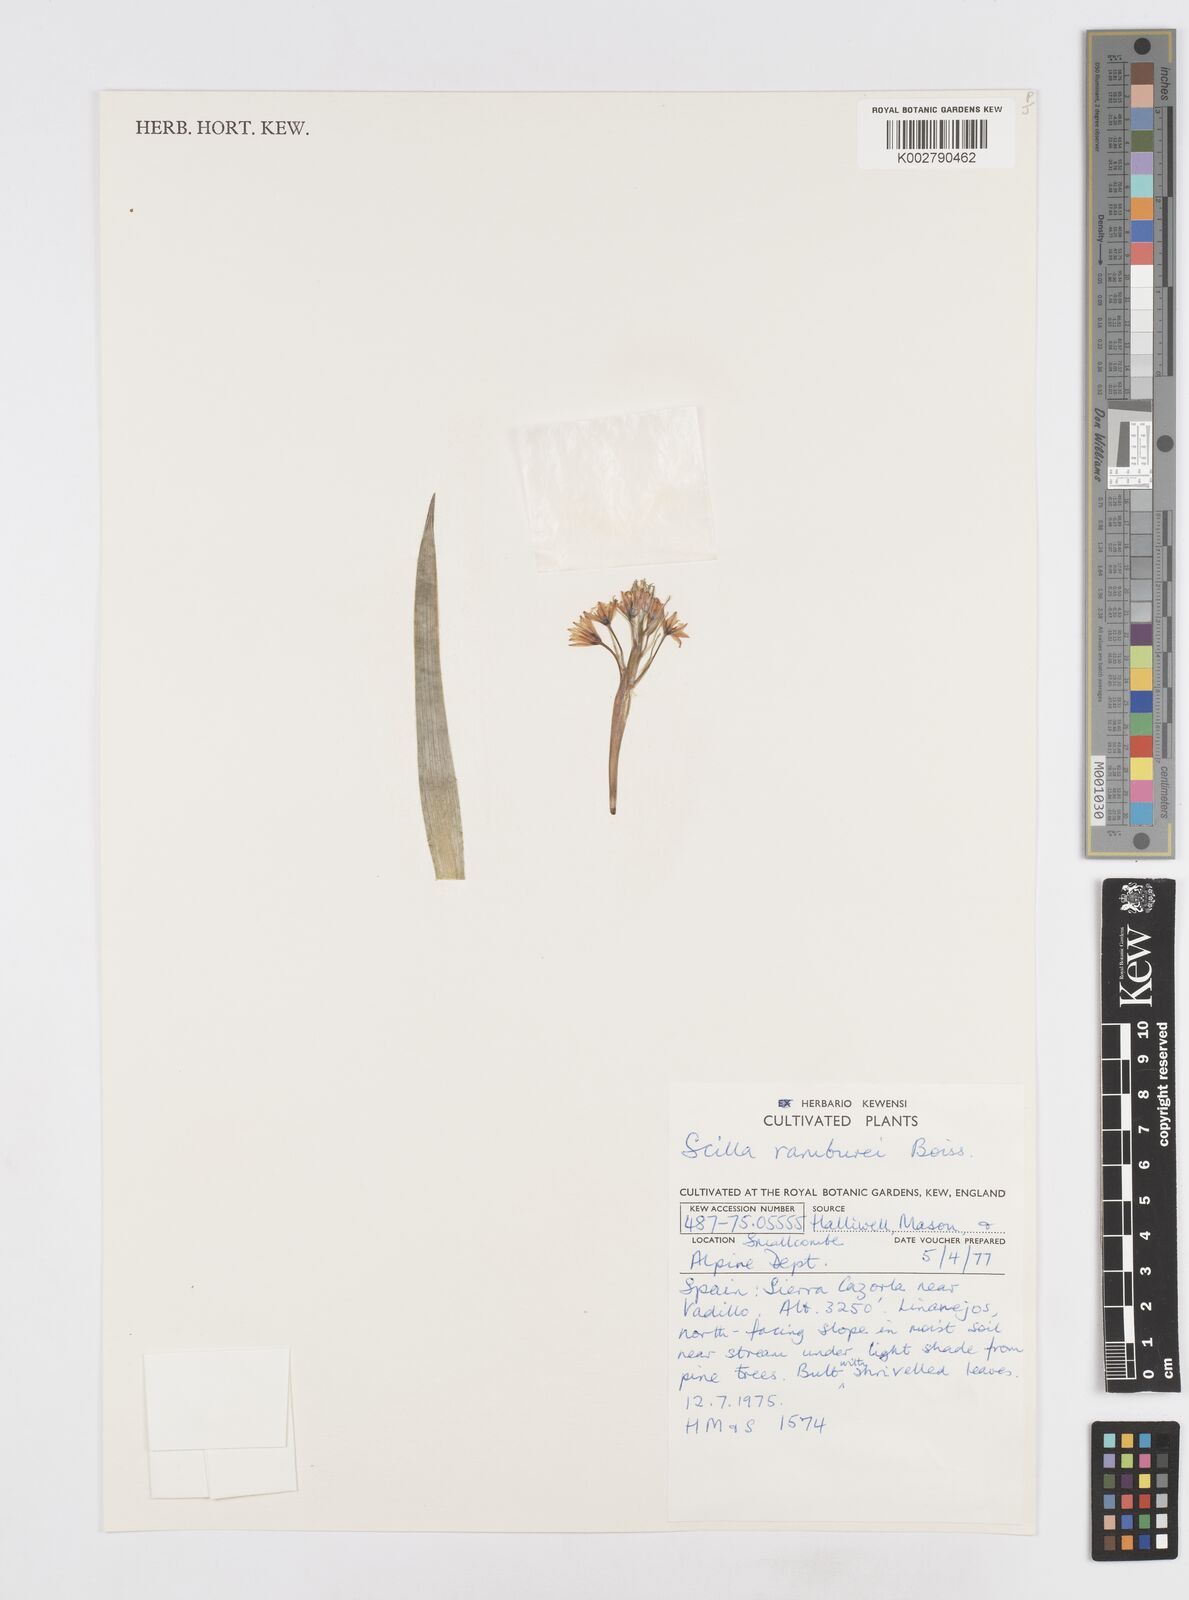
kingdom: Plantae
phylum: Tracheophyta
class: Liliopsida
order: Asparagales
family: Asparagaceae
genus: Scilla
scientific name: Scilla verna
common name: Spring squill
